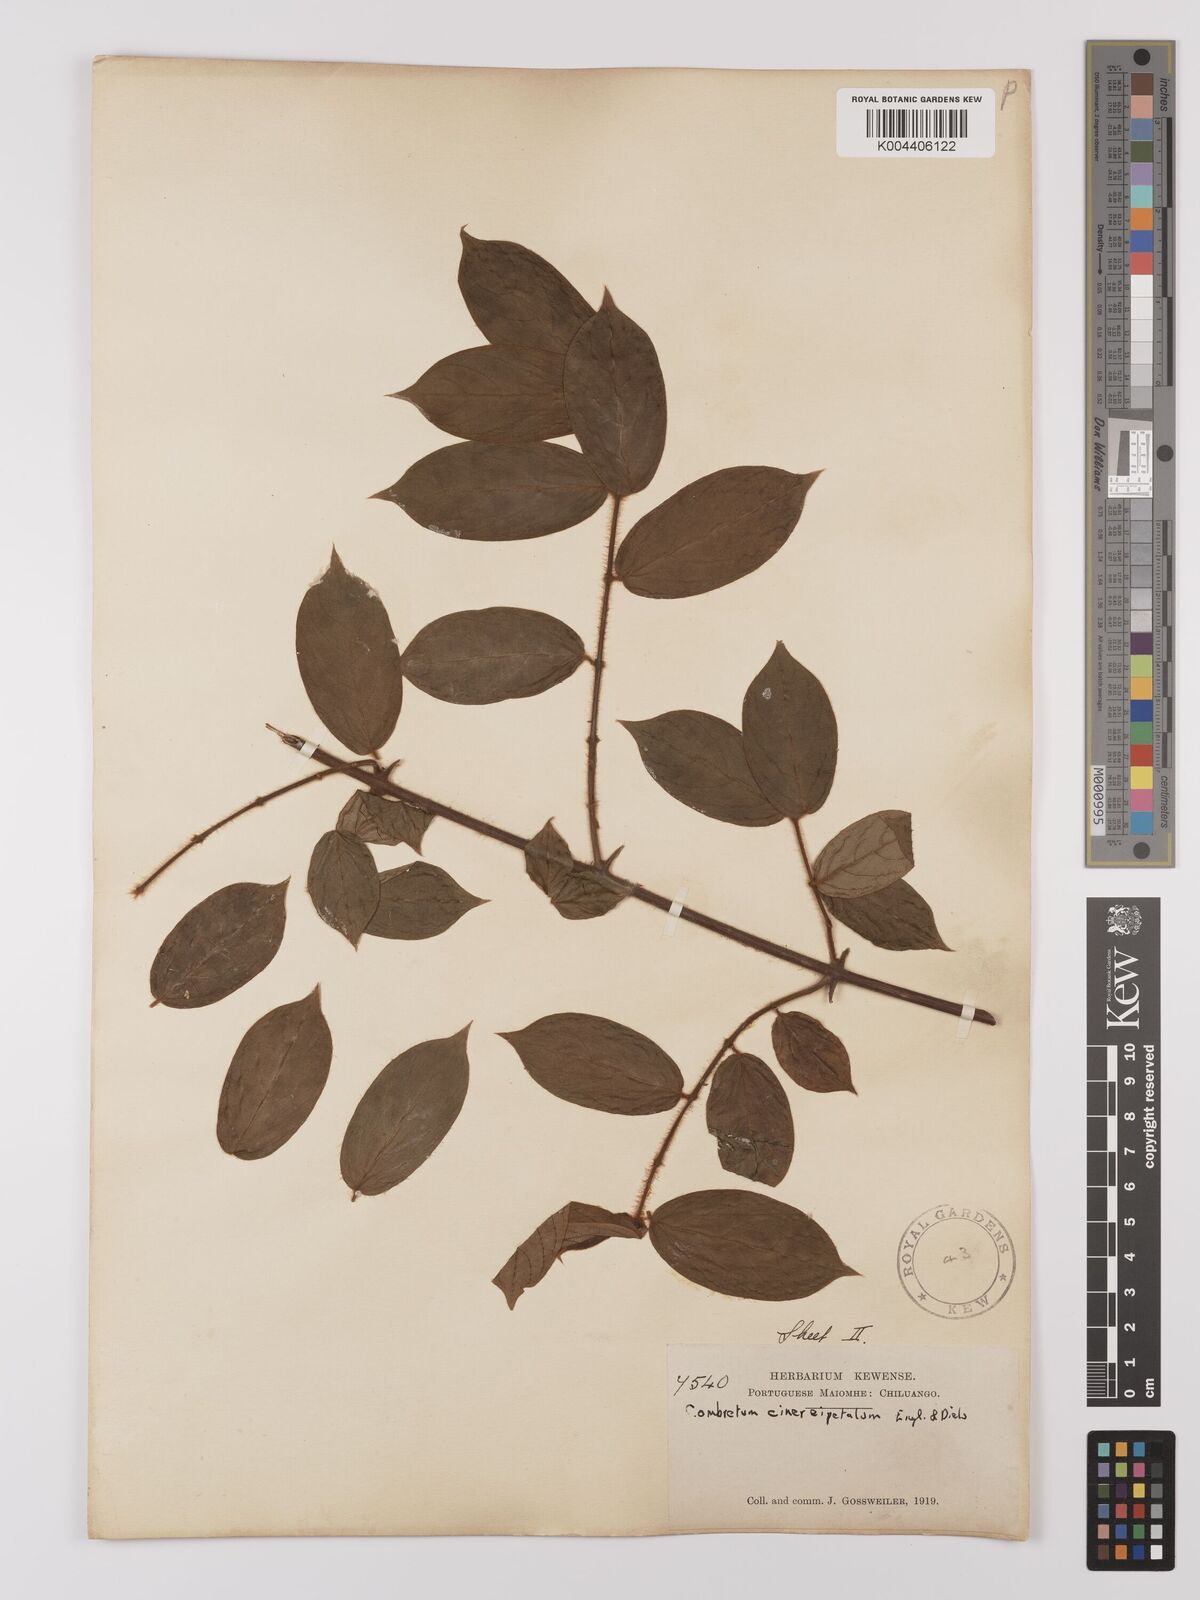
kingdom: Plantae
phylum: Tracheophyta
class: Magnoliopsida
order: Myrtales
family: Combretaceae
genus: Combretum
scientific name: Combretum cinereopetalum
